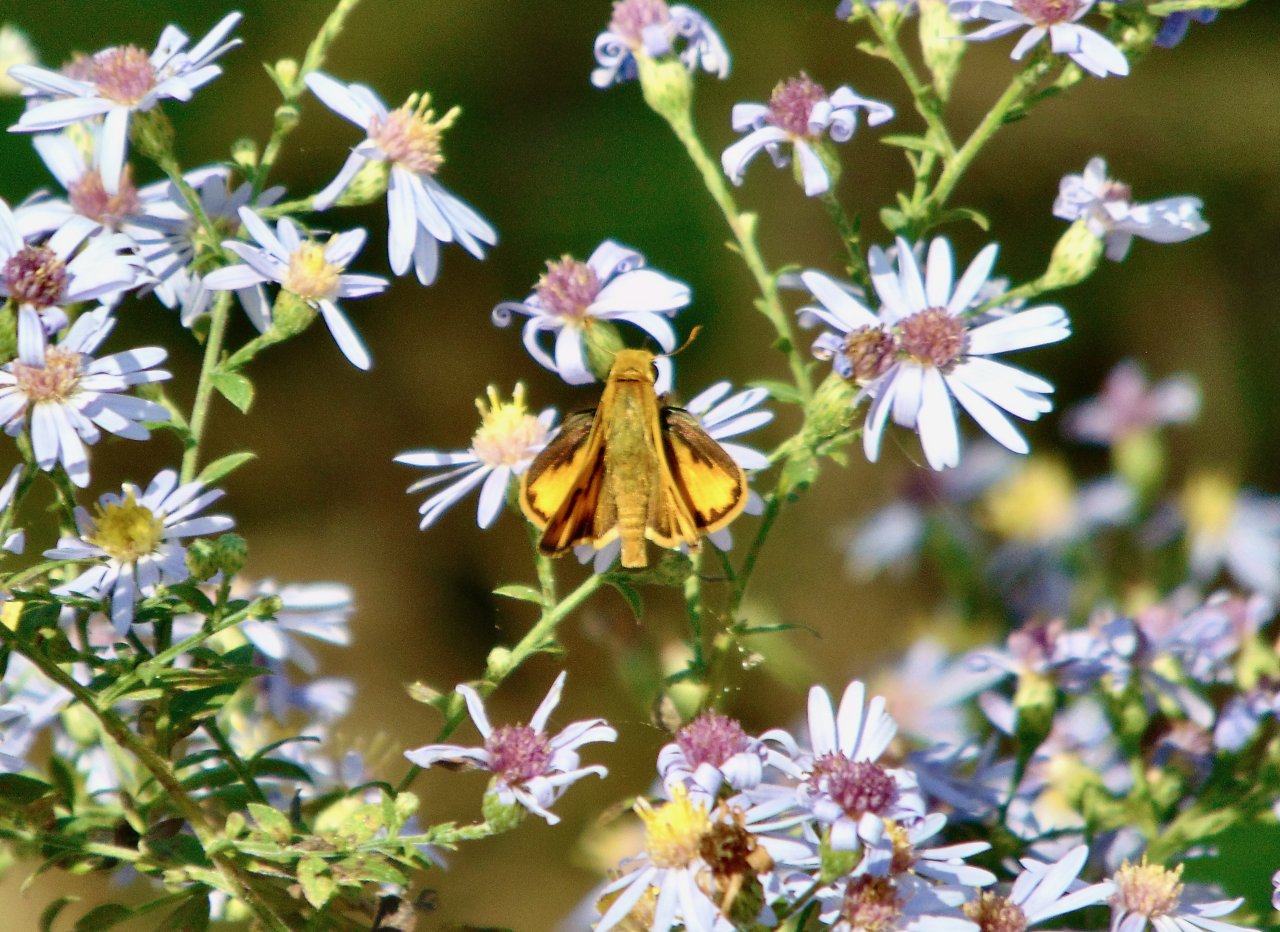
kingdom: Animalia
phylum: Arthropoda
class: Insecta
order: Lepidoptera
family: Hesperiidae
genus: Hylephila
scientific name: Hylephila phyleus
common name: Fiery Skipper
